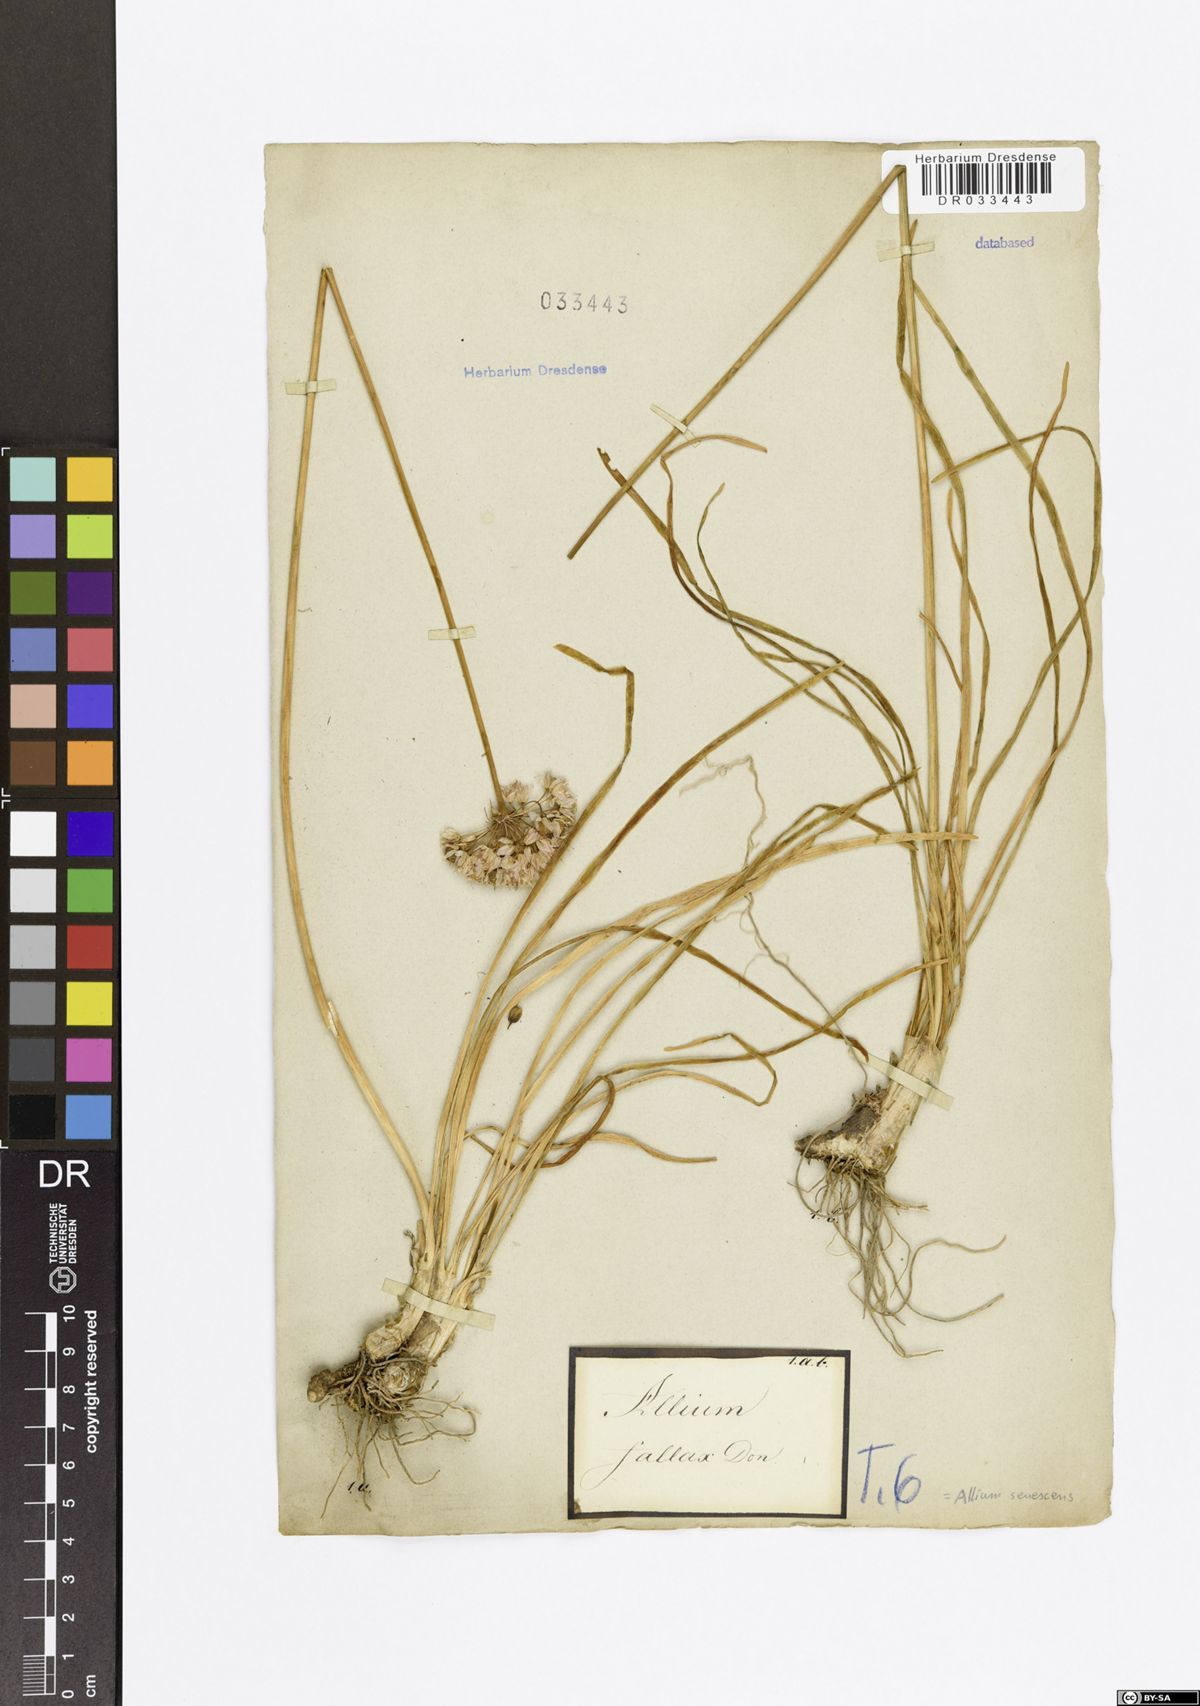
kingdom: Plantae
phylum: Tracheophyta
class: Liliopsida
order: Asparagales
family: Amaryllidaceae
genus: Allium
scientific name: Allium senescens
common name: German garlic
